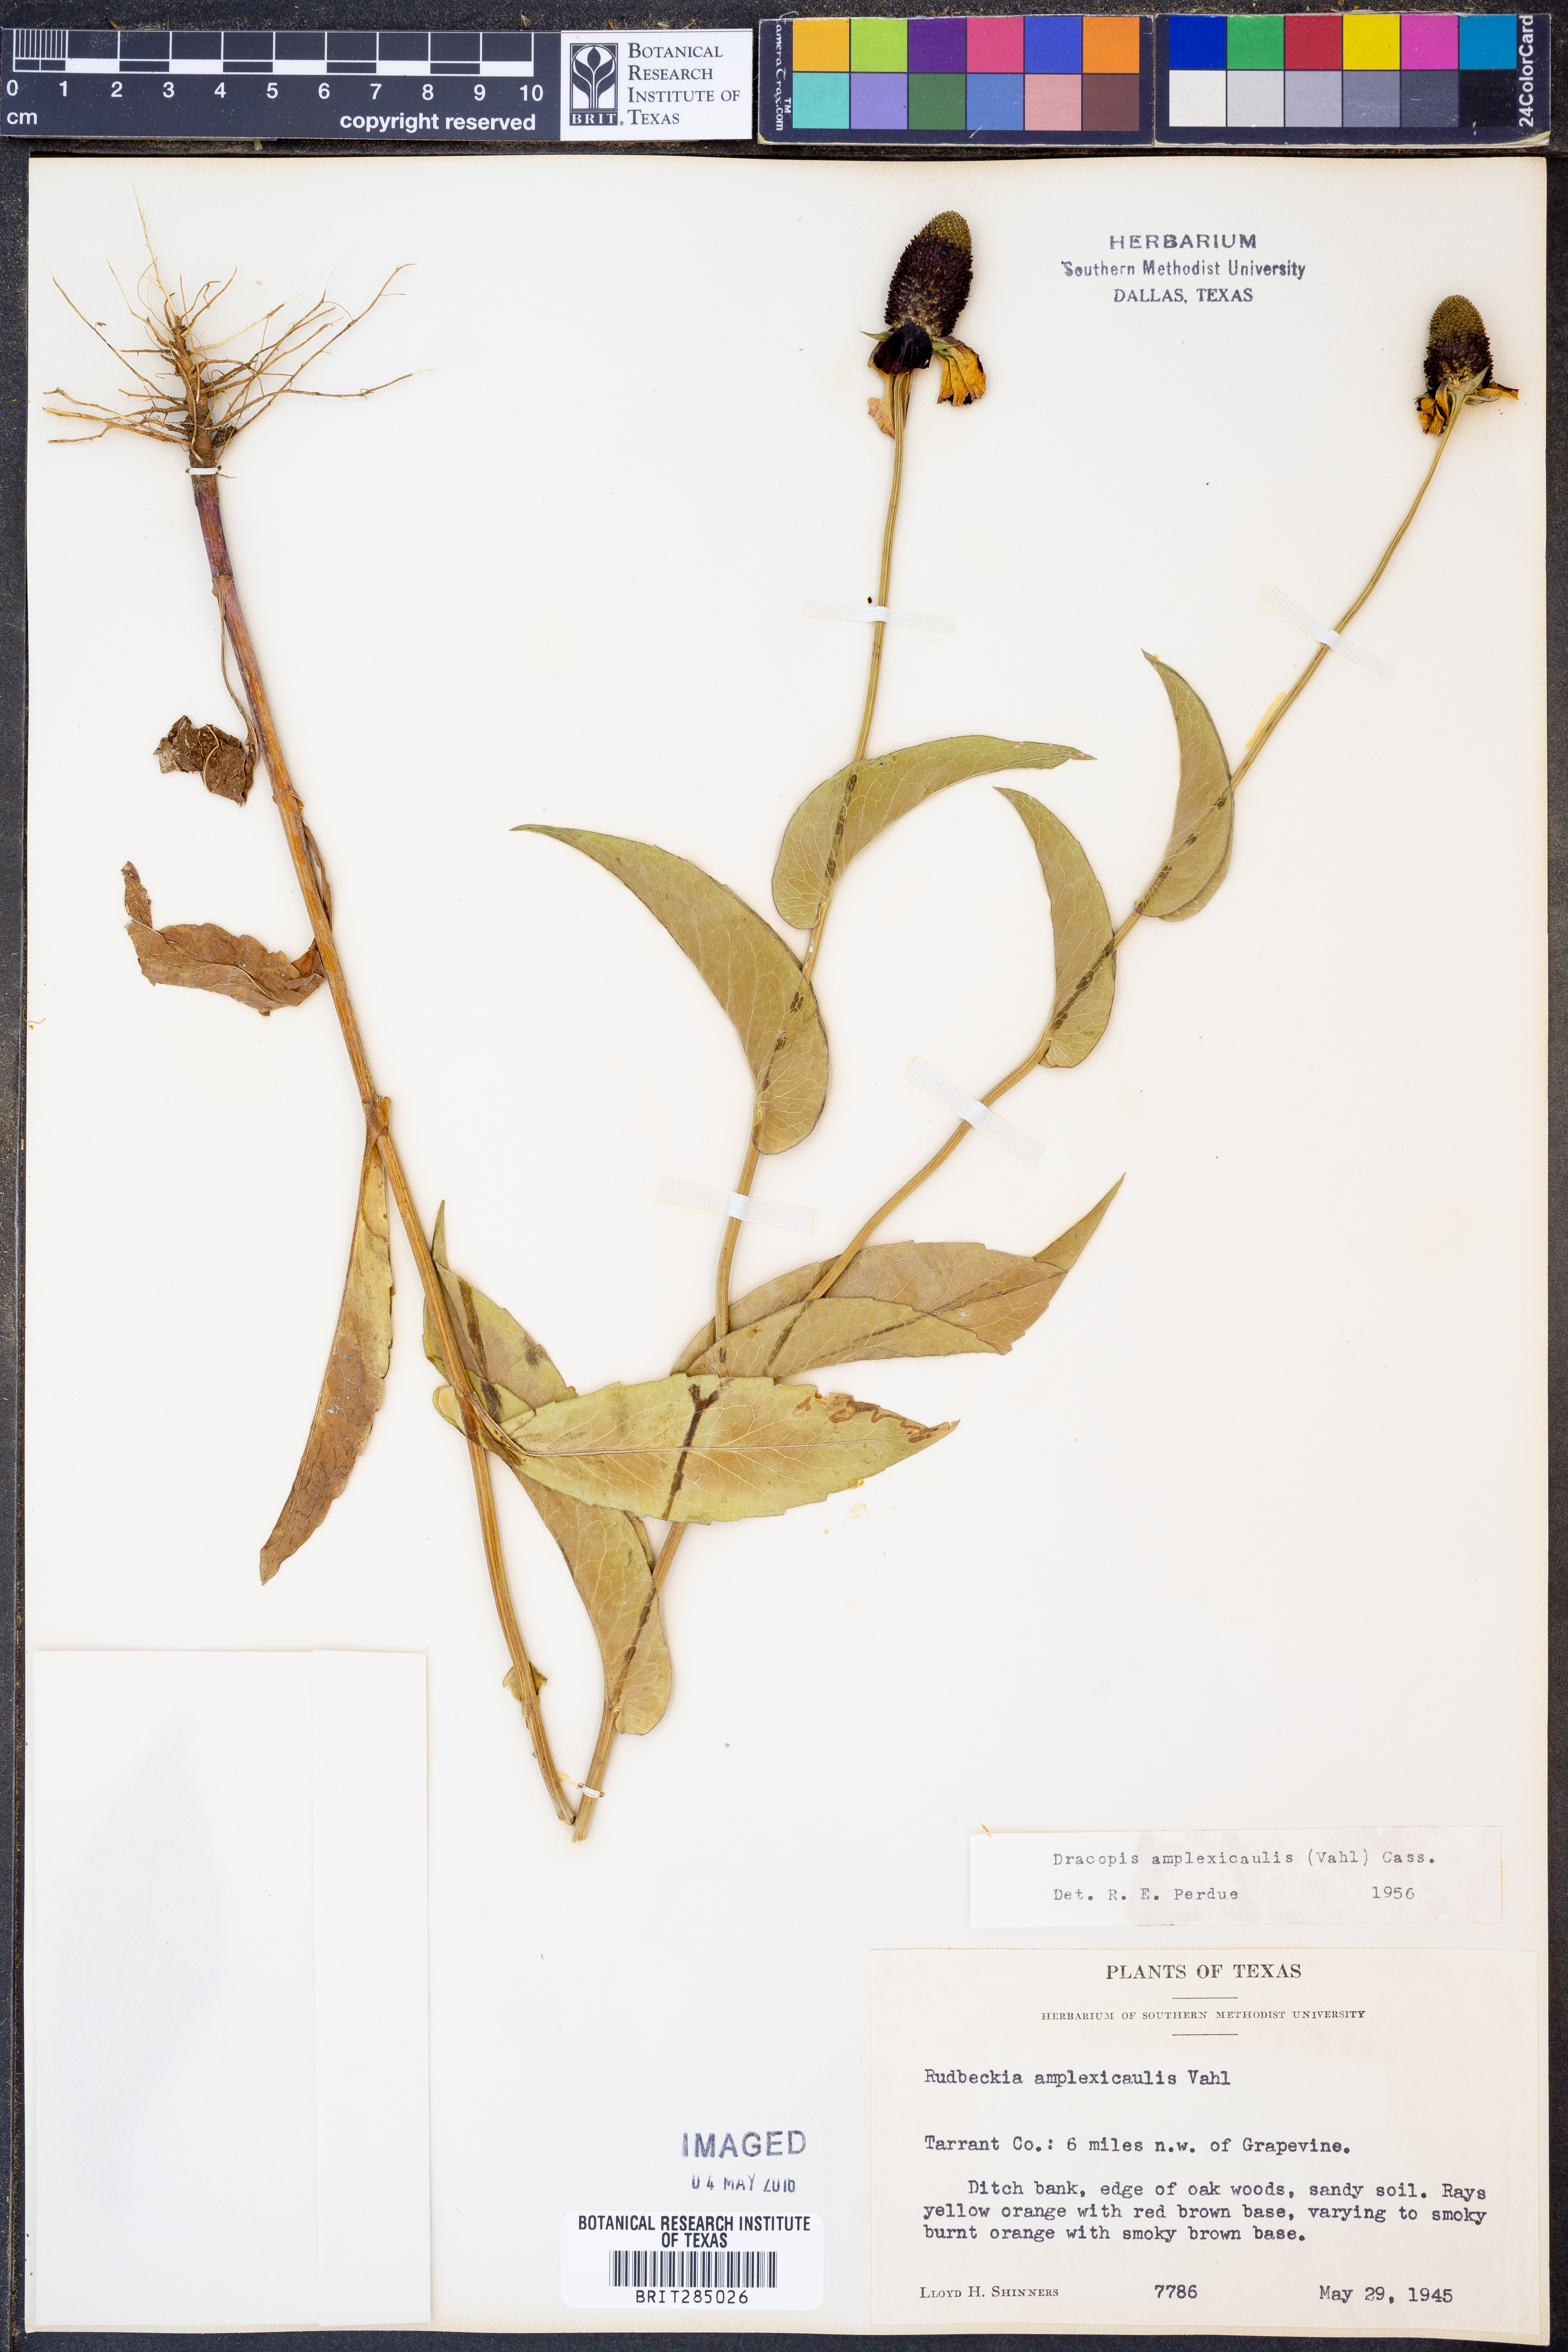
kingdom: Plantae
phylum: Tracheophyta
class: Magnoliopsida
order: Asterales
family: Asteraceae
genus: Rudbeckia
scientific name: Rudbeckia amplexicaulis
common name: Clasping-leaf coneflower
